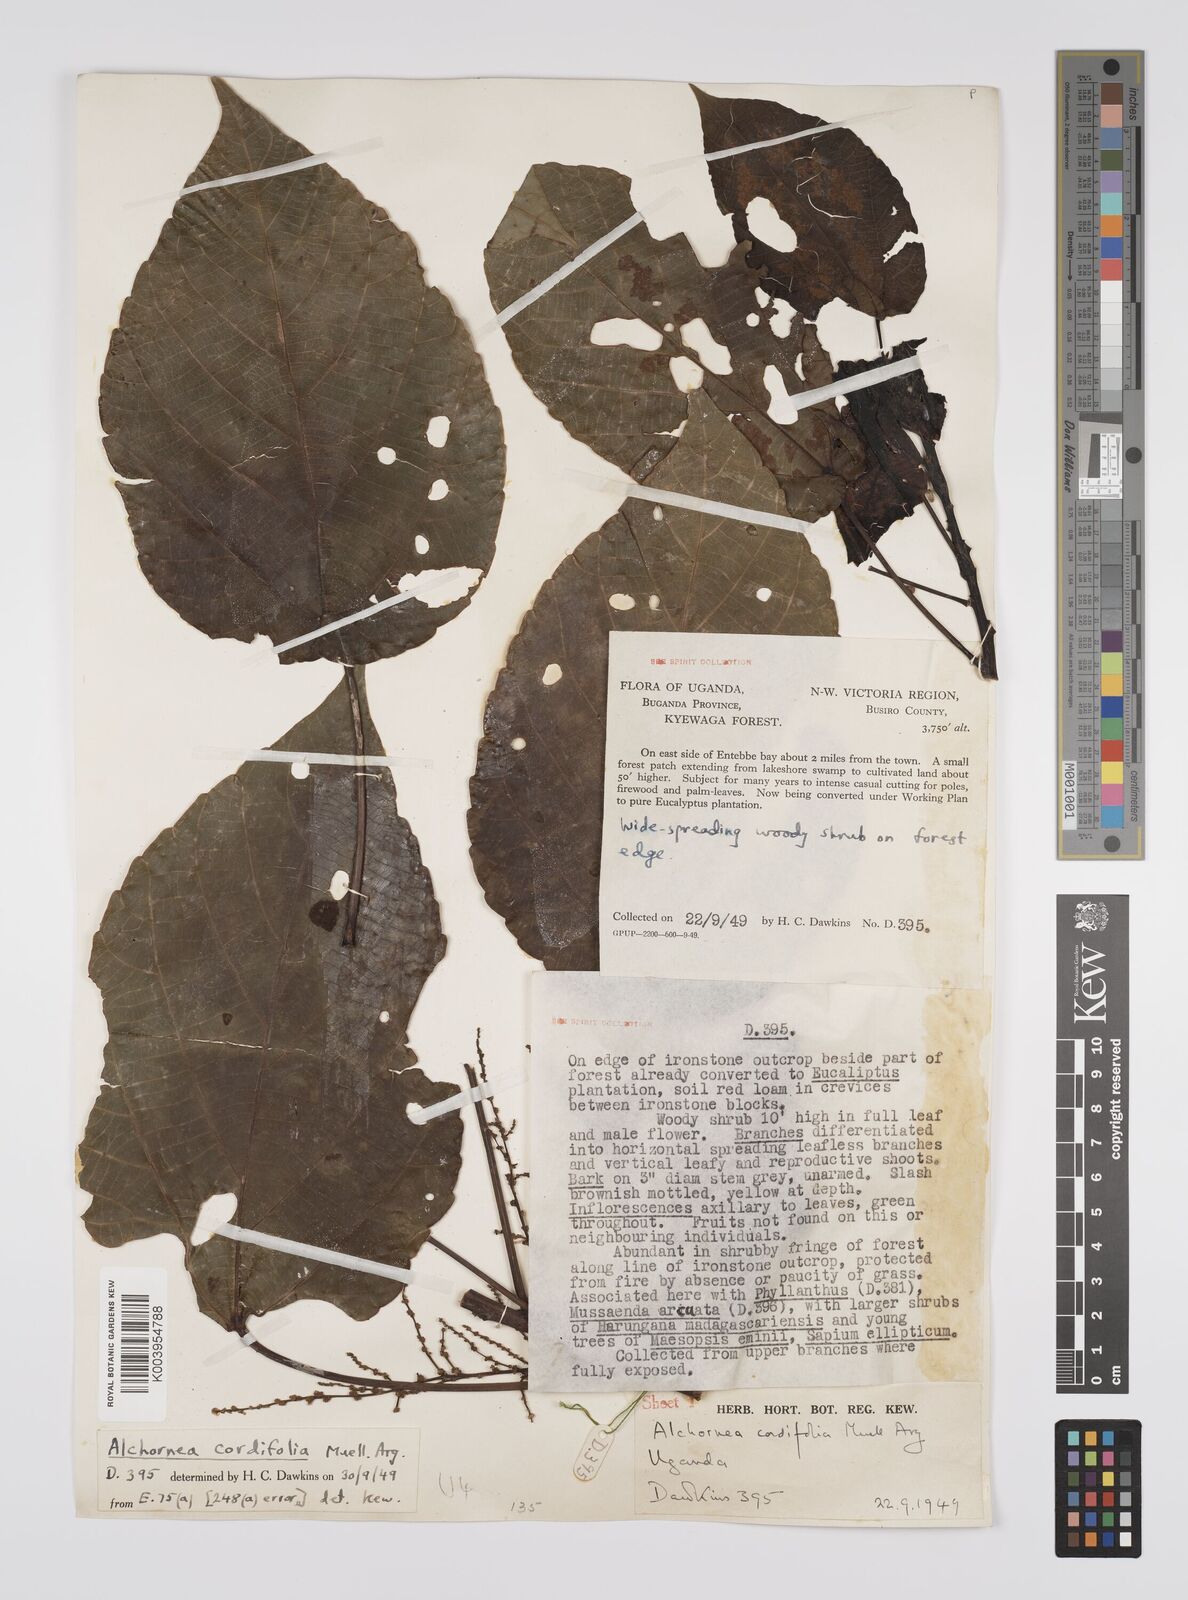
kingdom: Plantae
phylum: Tracheophyta
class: Magnoliopsida
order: Malpighiales
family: Euphorbiaceae
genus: Alchornea
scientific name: Alchornea cordifolia
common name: Christmasbush
